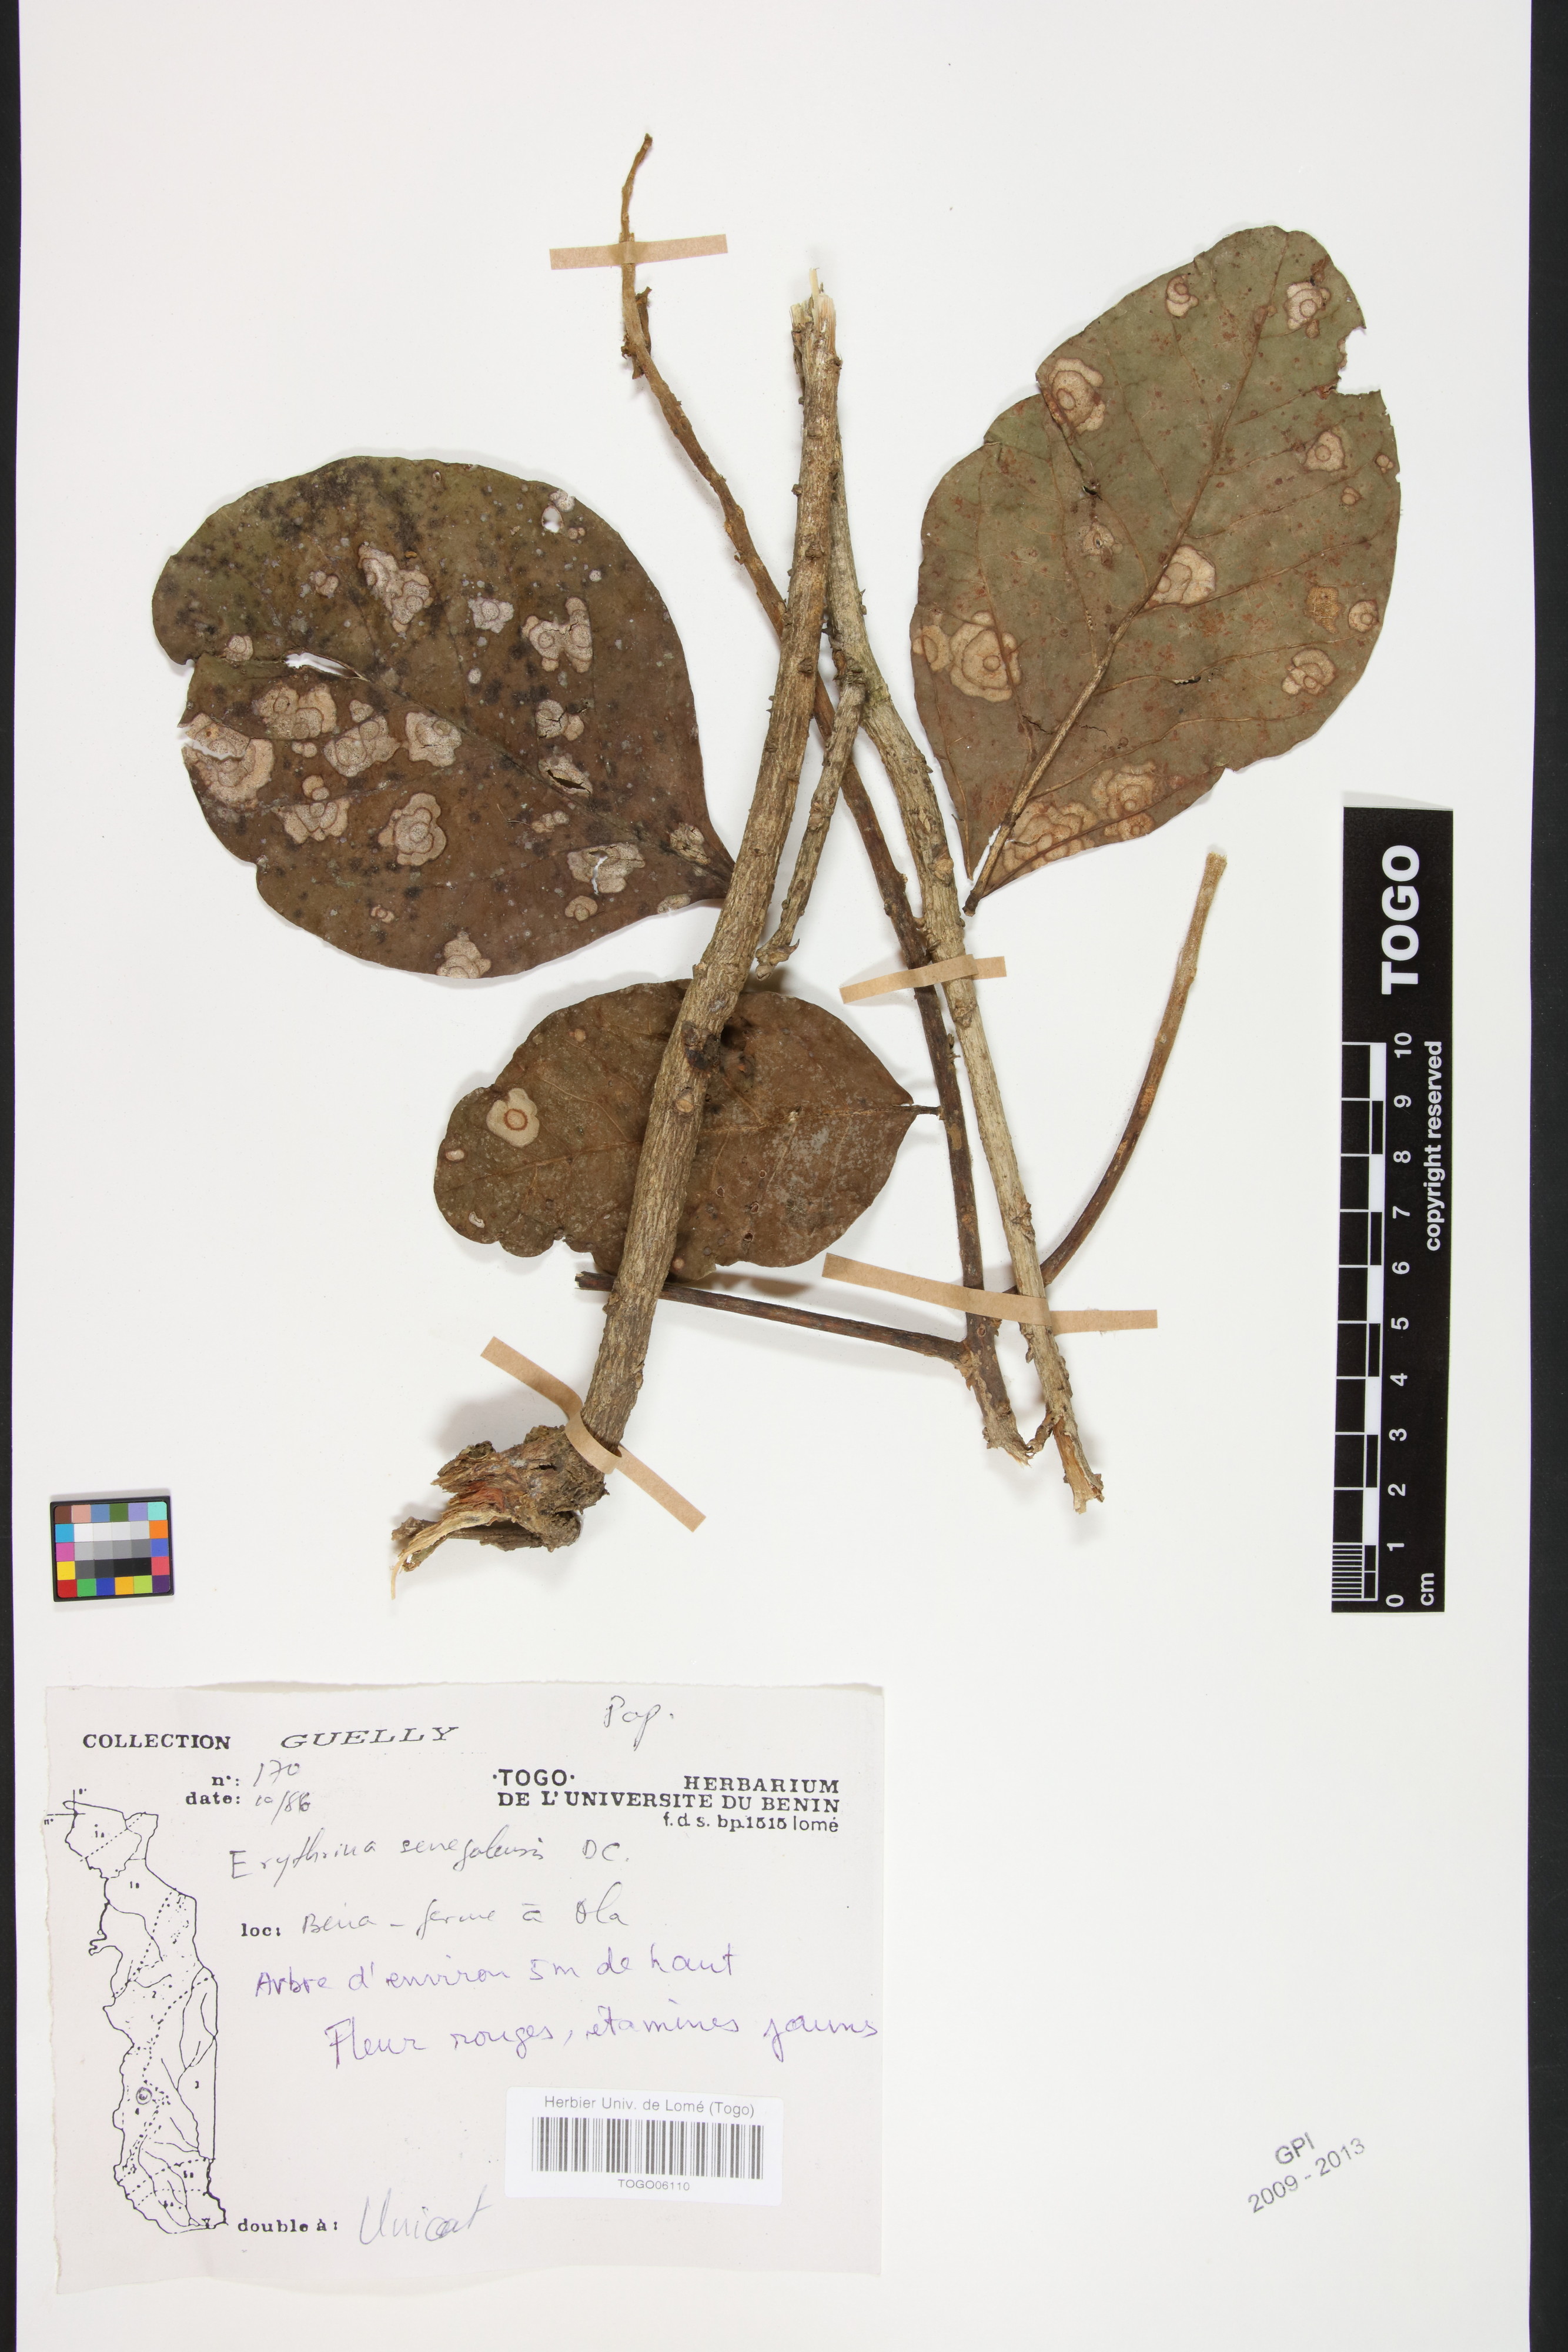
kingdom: Plantae
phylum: Tracheophyta
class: Magnoliopsida
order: Fabales
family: Fabaceae
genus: Erythrina
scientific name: Erythrina senegalensis
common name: Senegal coraltree
